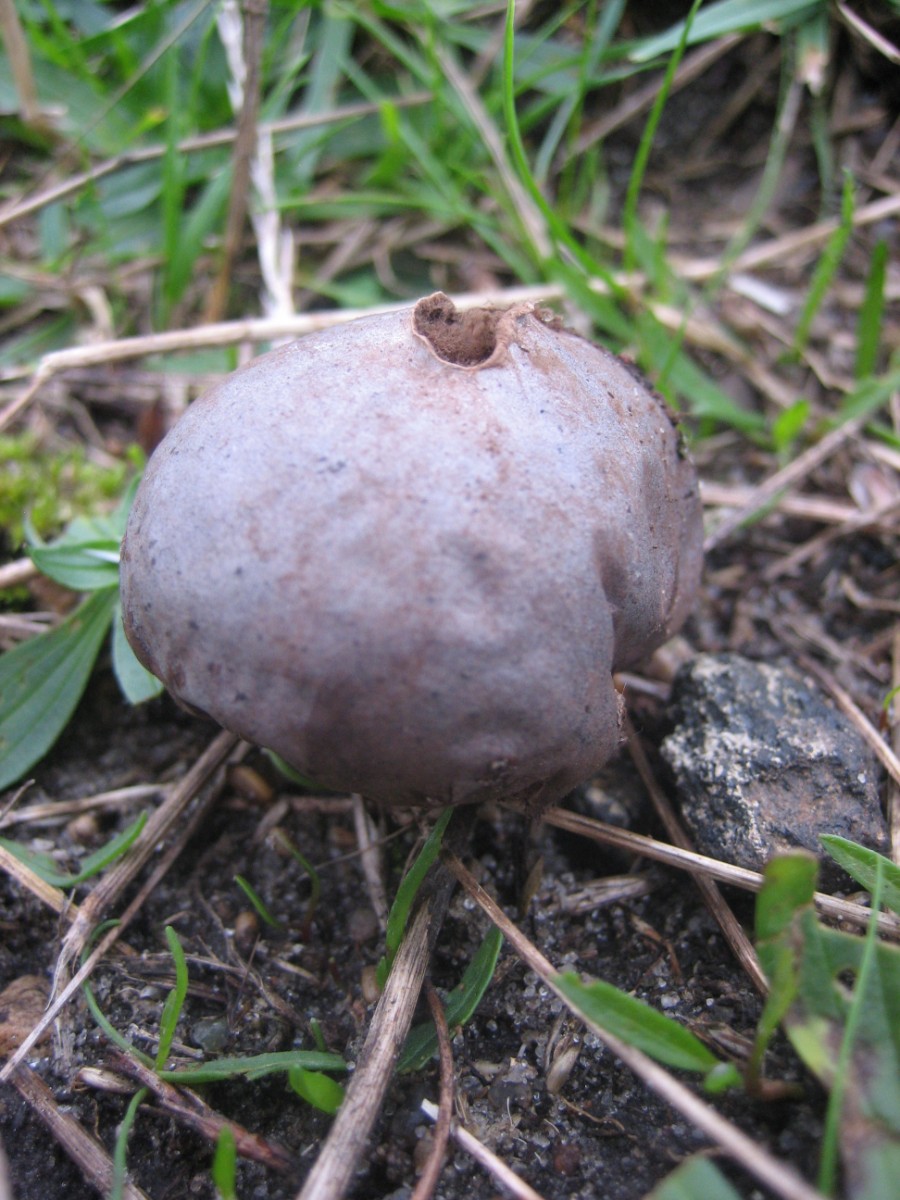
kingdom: Fungi
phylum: Basidiomycota
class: Agaricomycetes
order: Agaricales
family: Lycoperdaceae
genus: Bovista
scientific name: Bovista plumbea
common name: blygrå bovist
